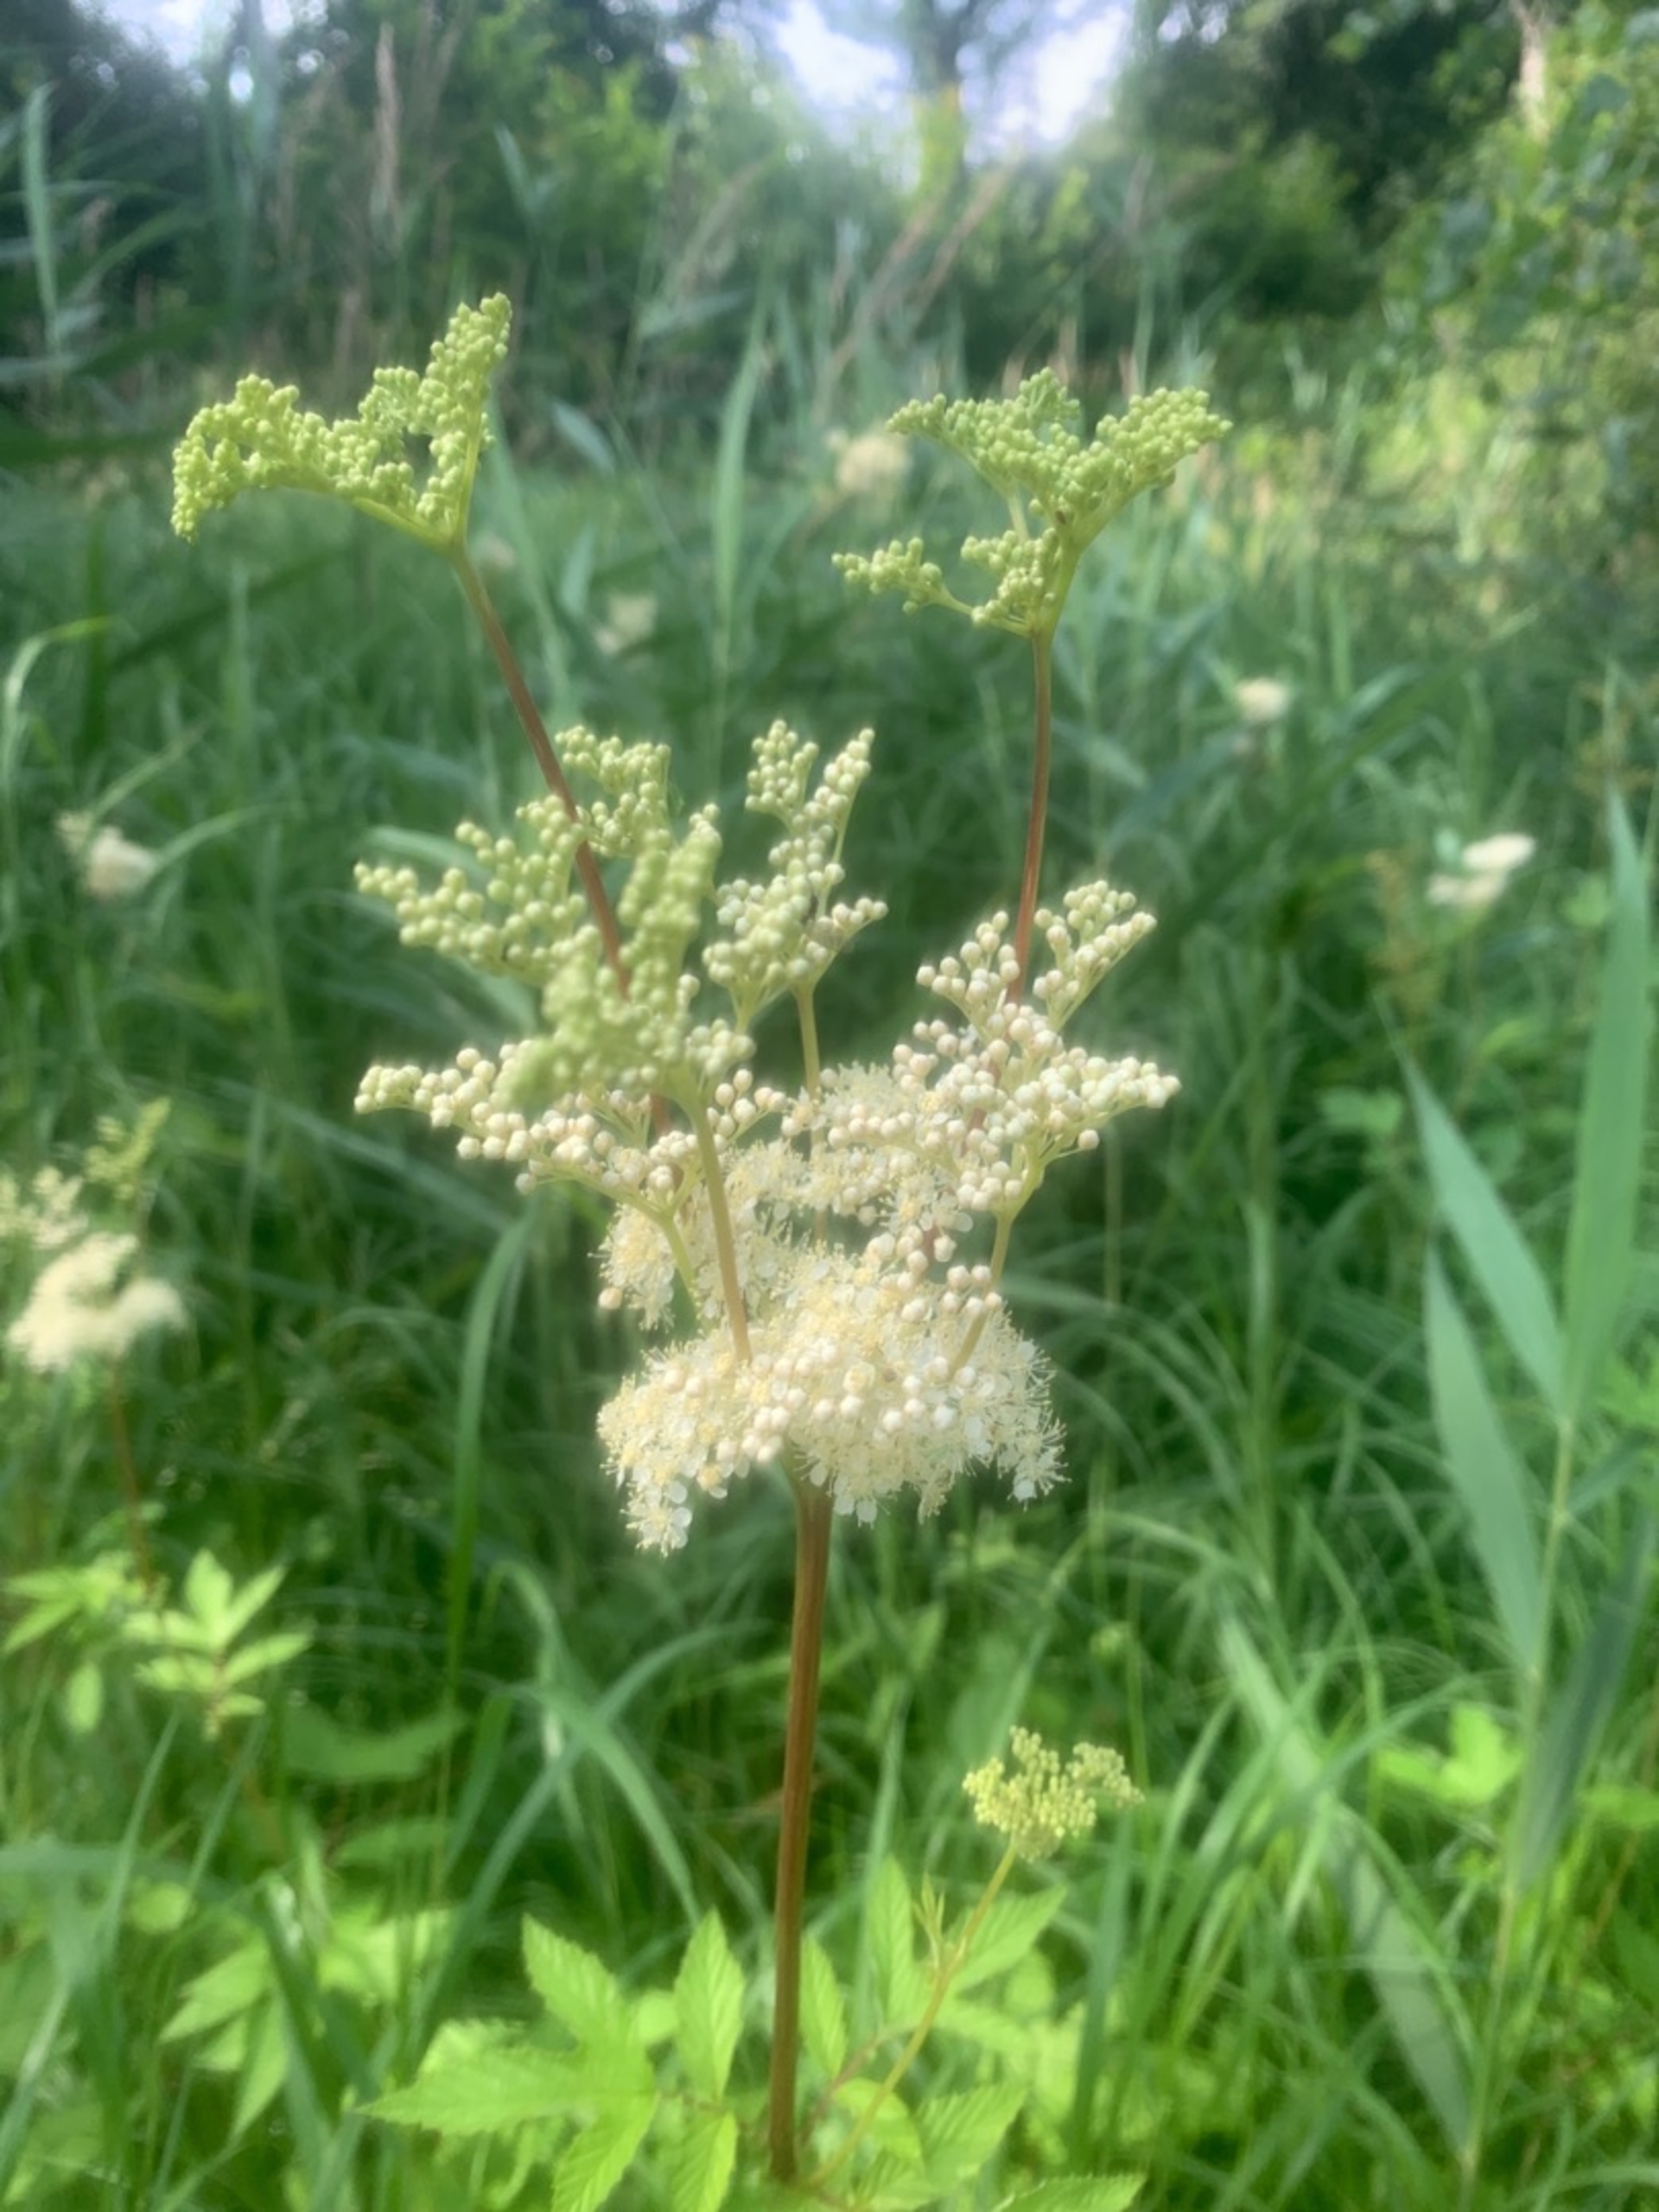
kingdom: Plantae
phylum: Tracheophyta
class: Magnoliopsida
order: Rosales
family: Rosaceae
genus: Filipendula
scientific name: Filipendula ulmaria
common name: Almindelig mjødurt
